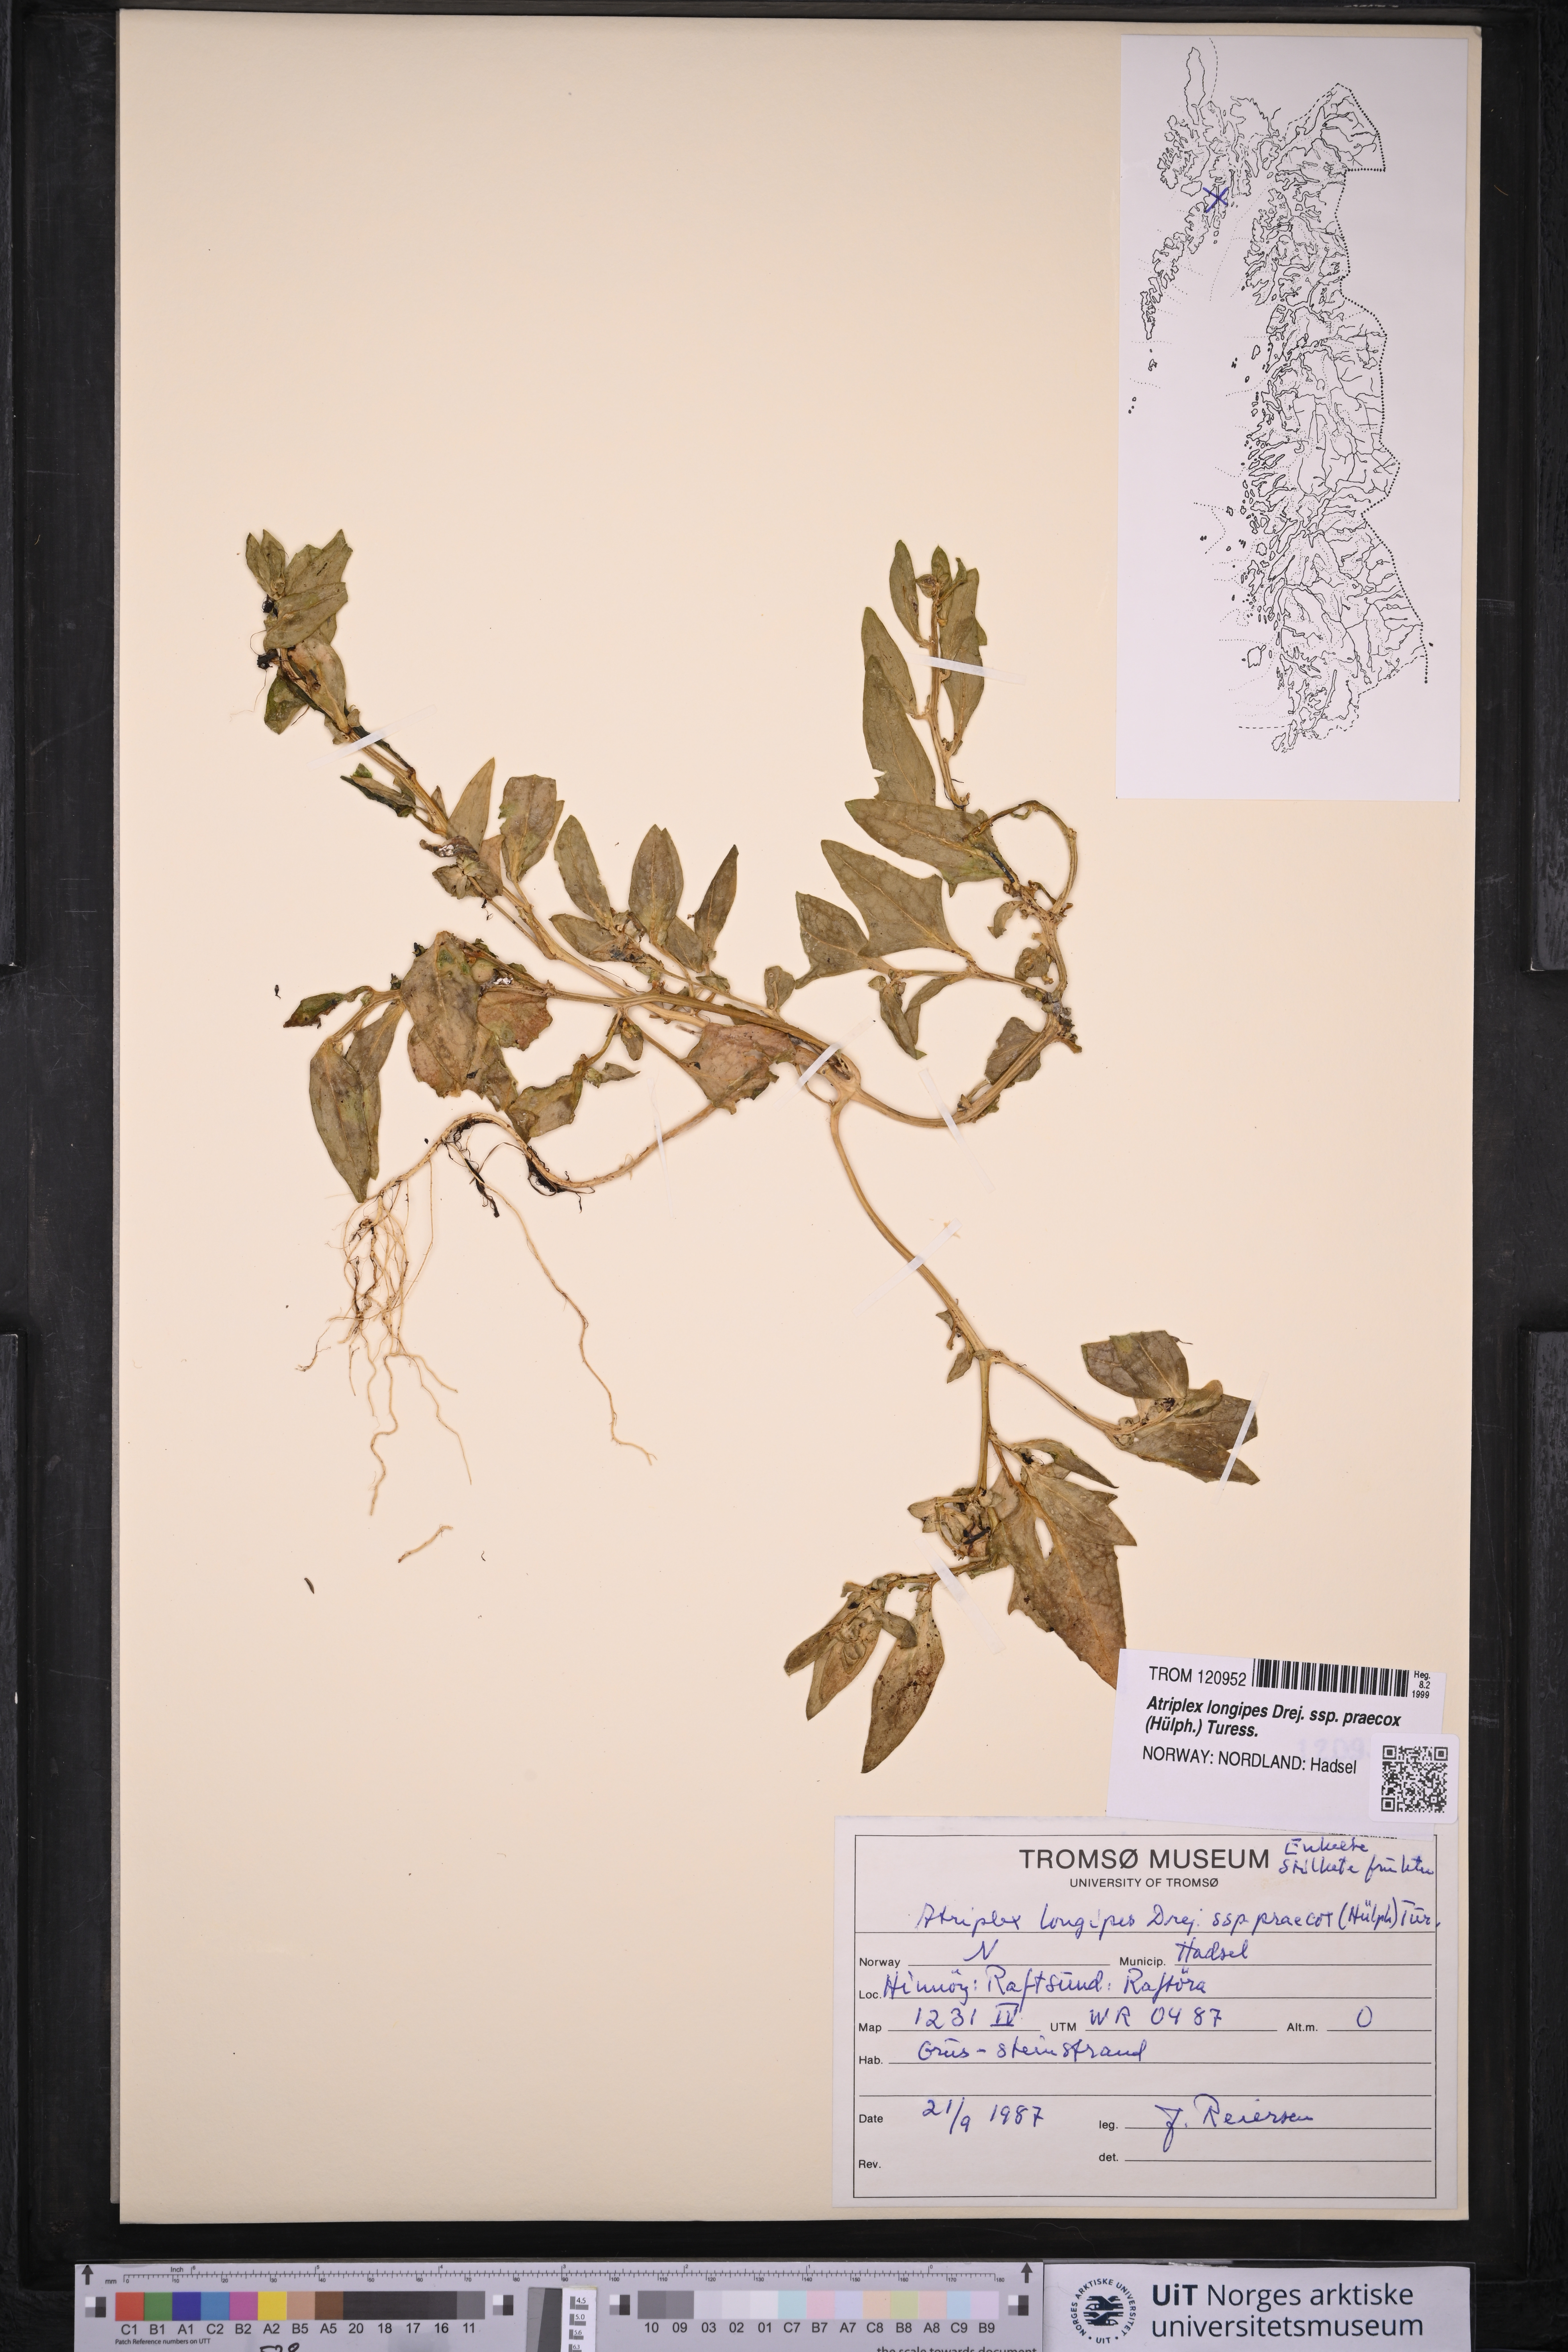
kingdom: Plantae
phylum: Tracheophyta
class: Magnoliopsida
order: Caryophyllales
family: Amaranthaceae
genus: Atriplex
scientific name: Atriplex praecox
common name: Early orache
